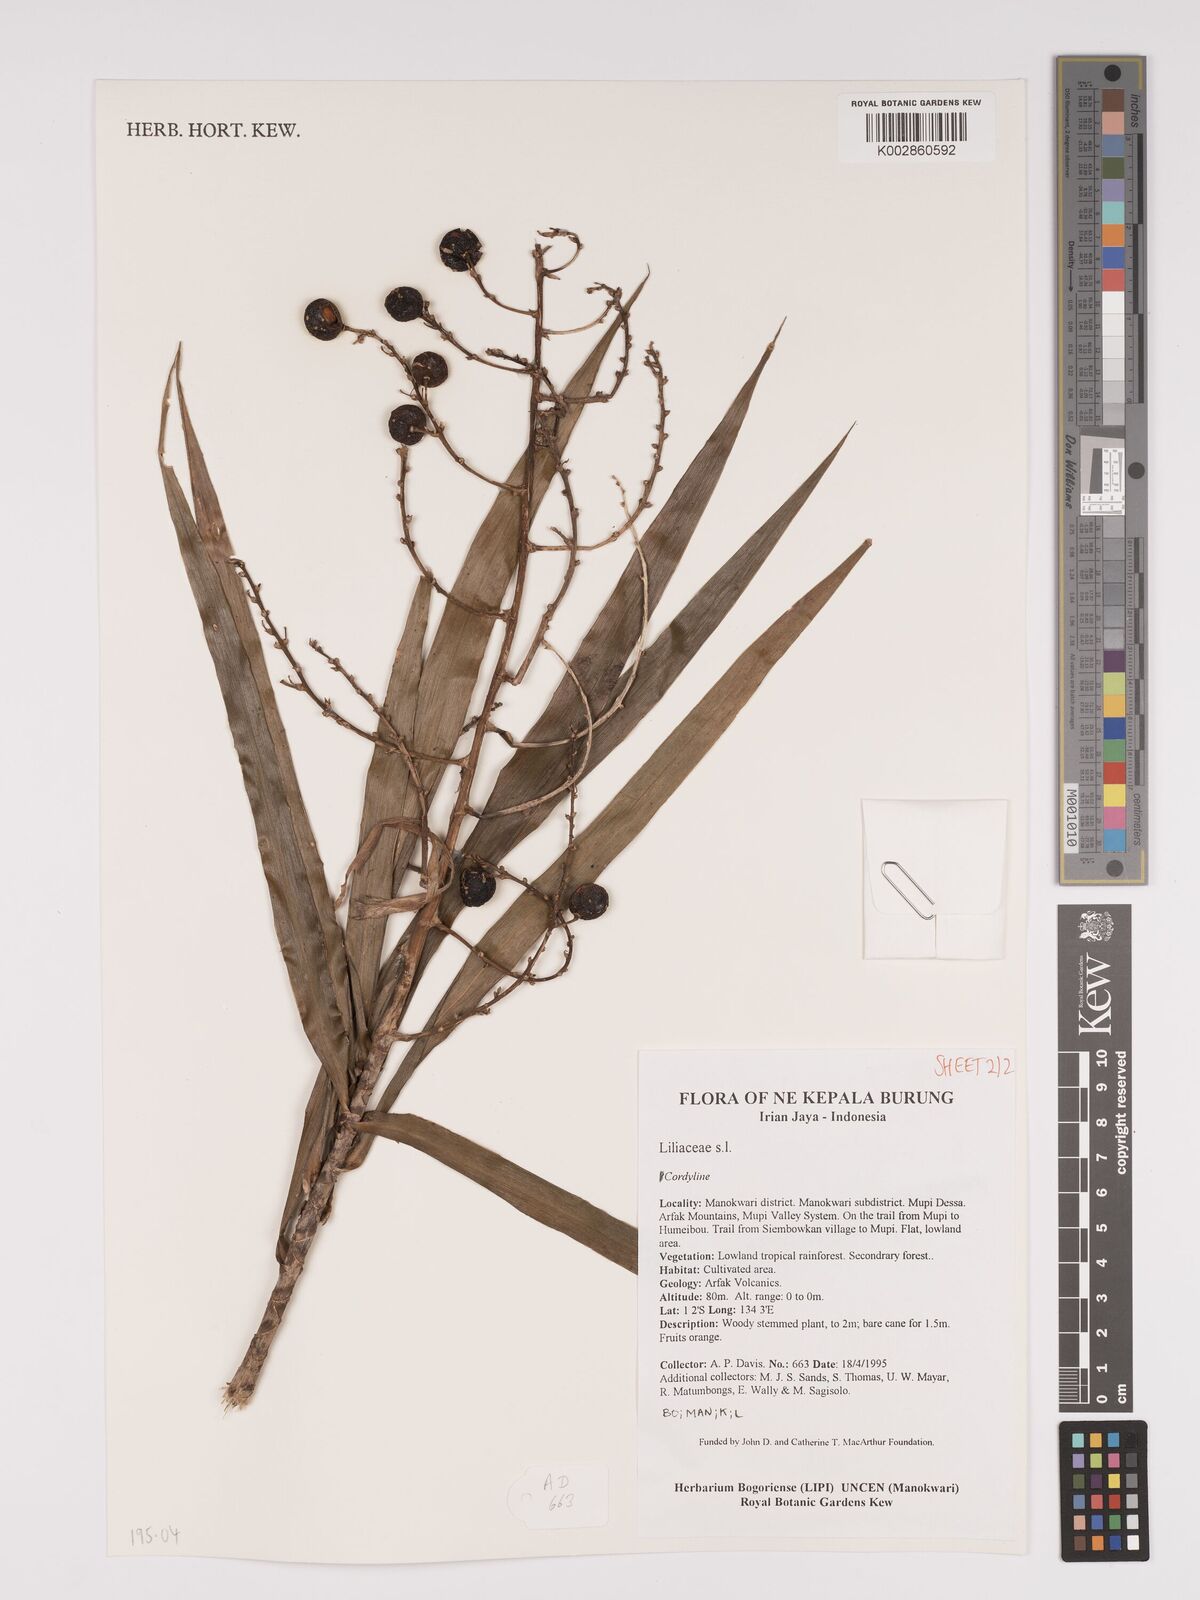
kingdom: Plantae
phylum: Tracheophyta
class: Liliopsida
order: Asparagales
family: Asparagaceae
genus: Dracaena
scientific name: Dracaena angustifolia
